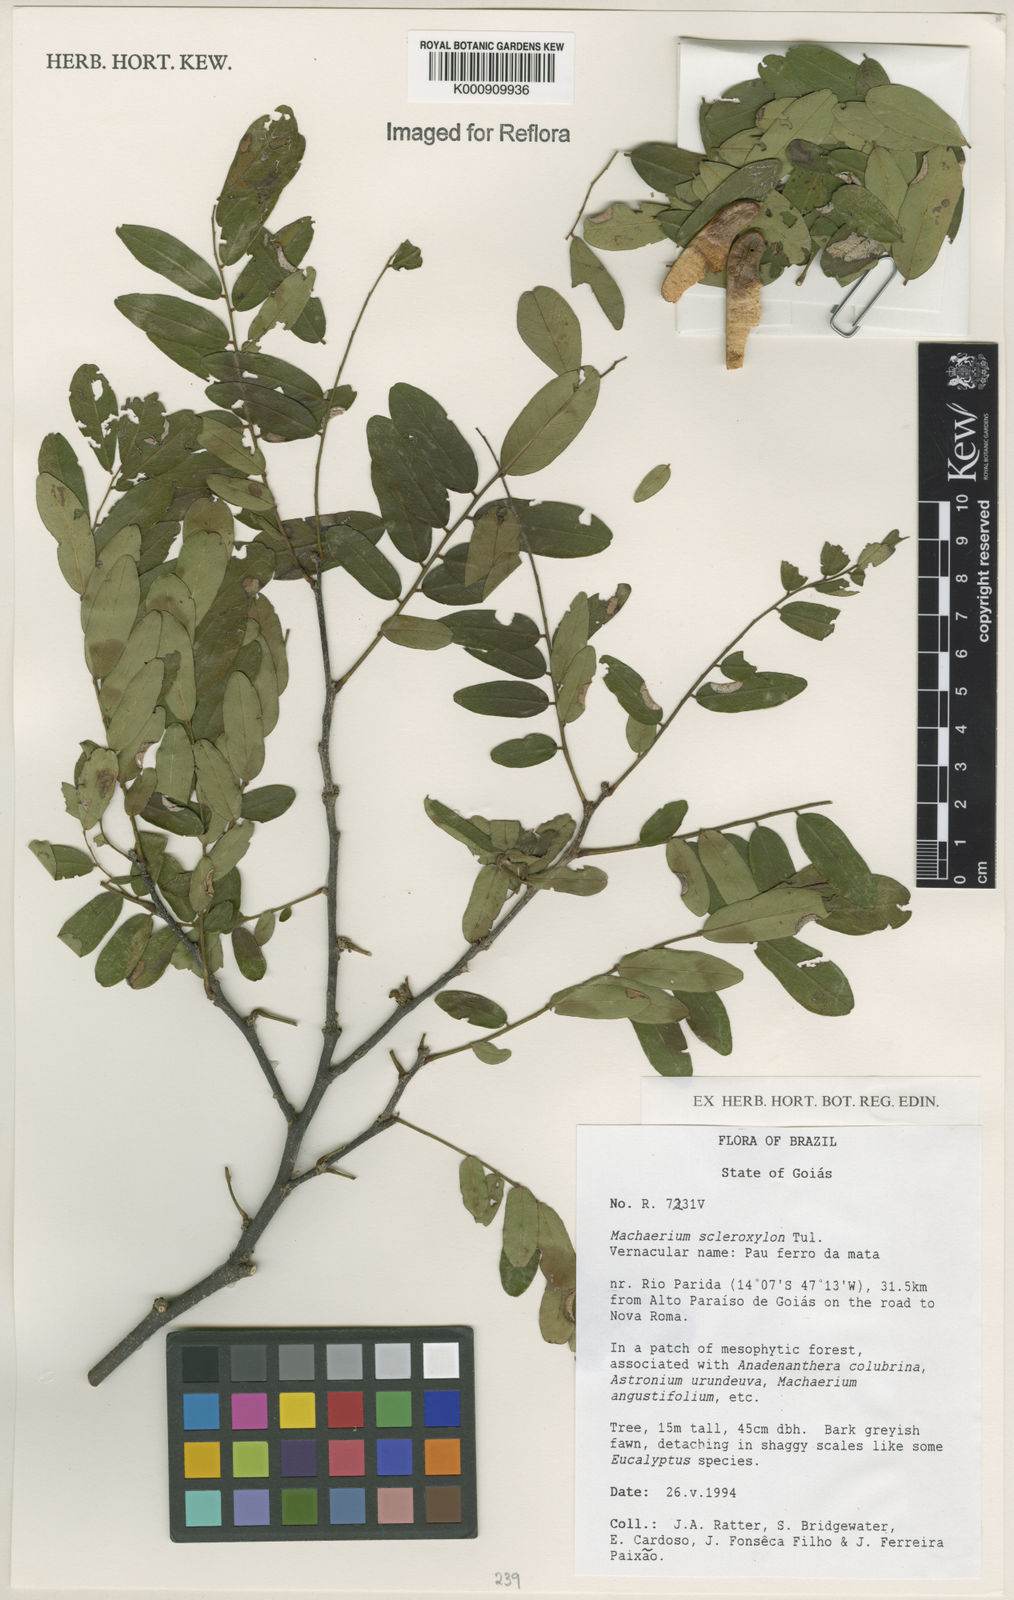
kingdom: Plantae
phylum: Tracheophyta
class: Magnoliopsida
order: Fabales
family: Fabaceae
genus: Machaerium
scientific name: Machaerium scleroxylon
